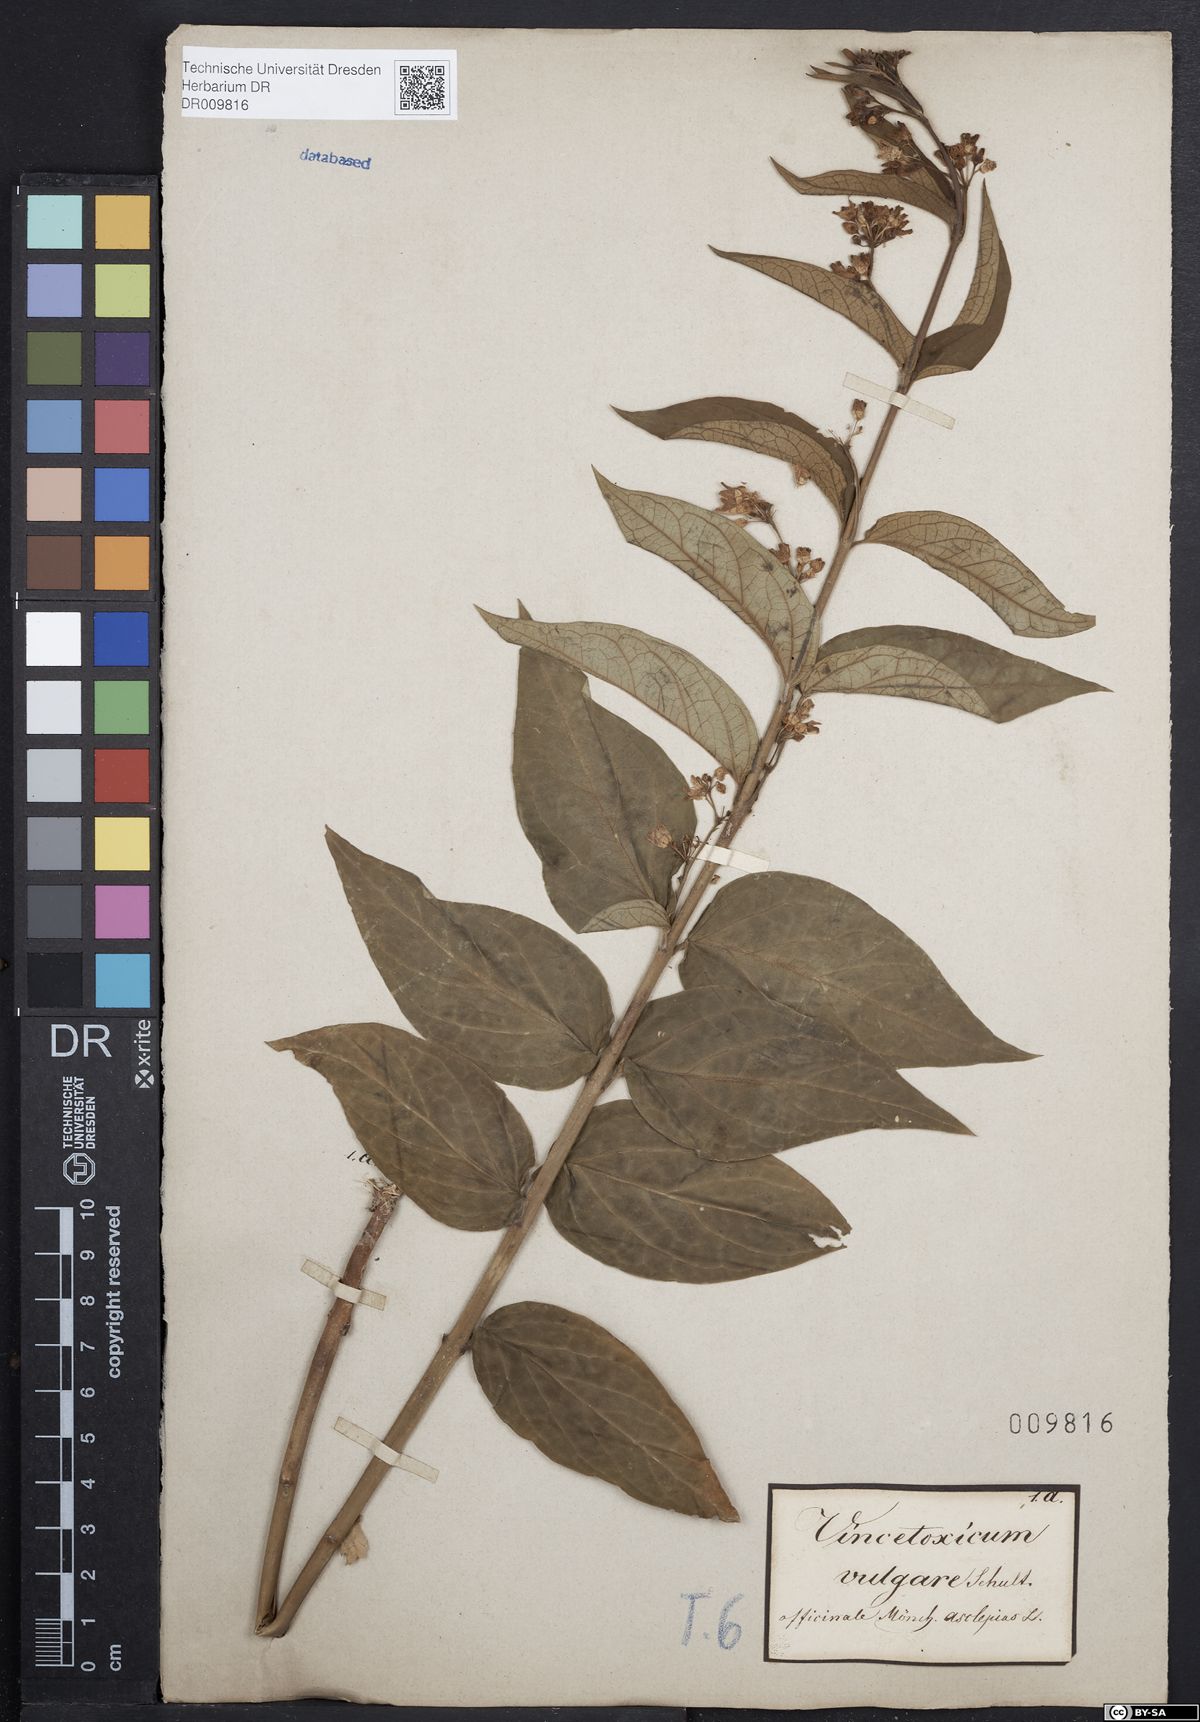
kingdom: Plantae
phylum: Tracheophyta
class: Magnoliopsida
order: Gentianales
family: Apocynaceae
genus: Vincetoxicum
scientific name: Vincetoxicum hirundinaria
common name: White swallowwort
